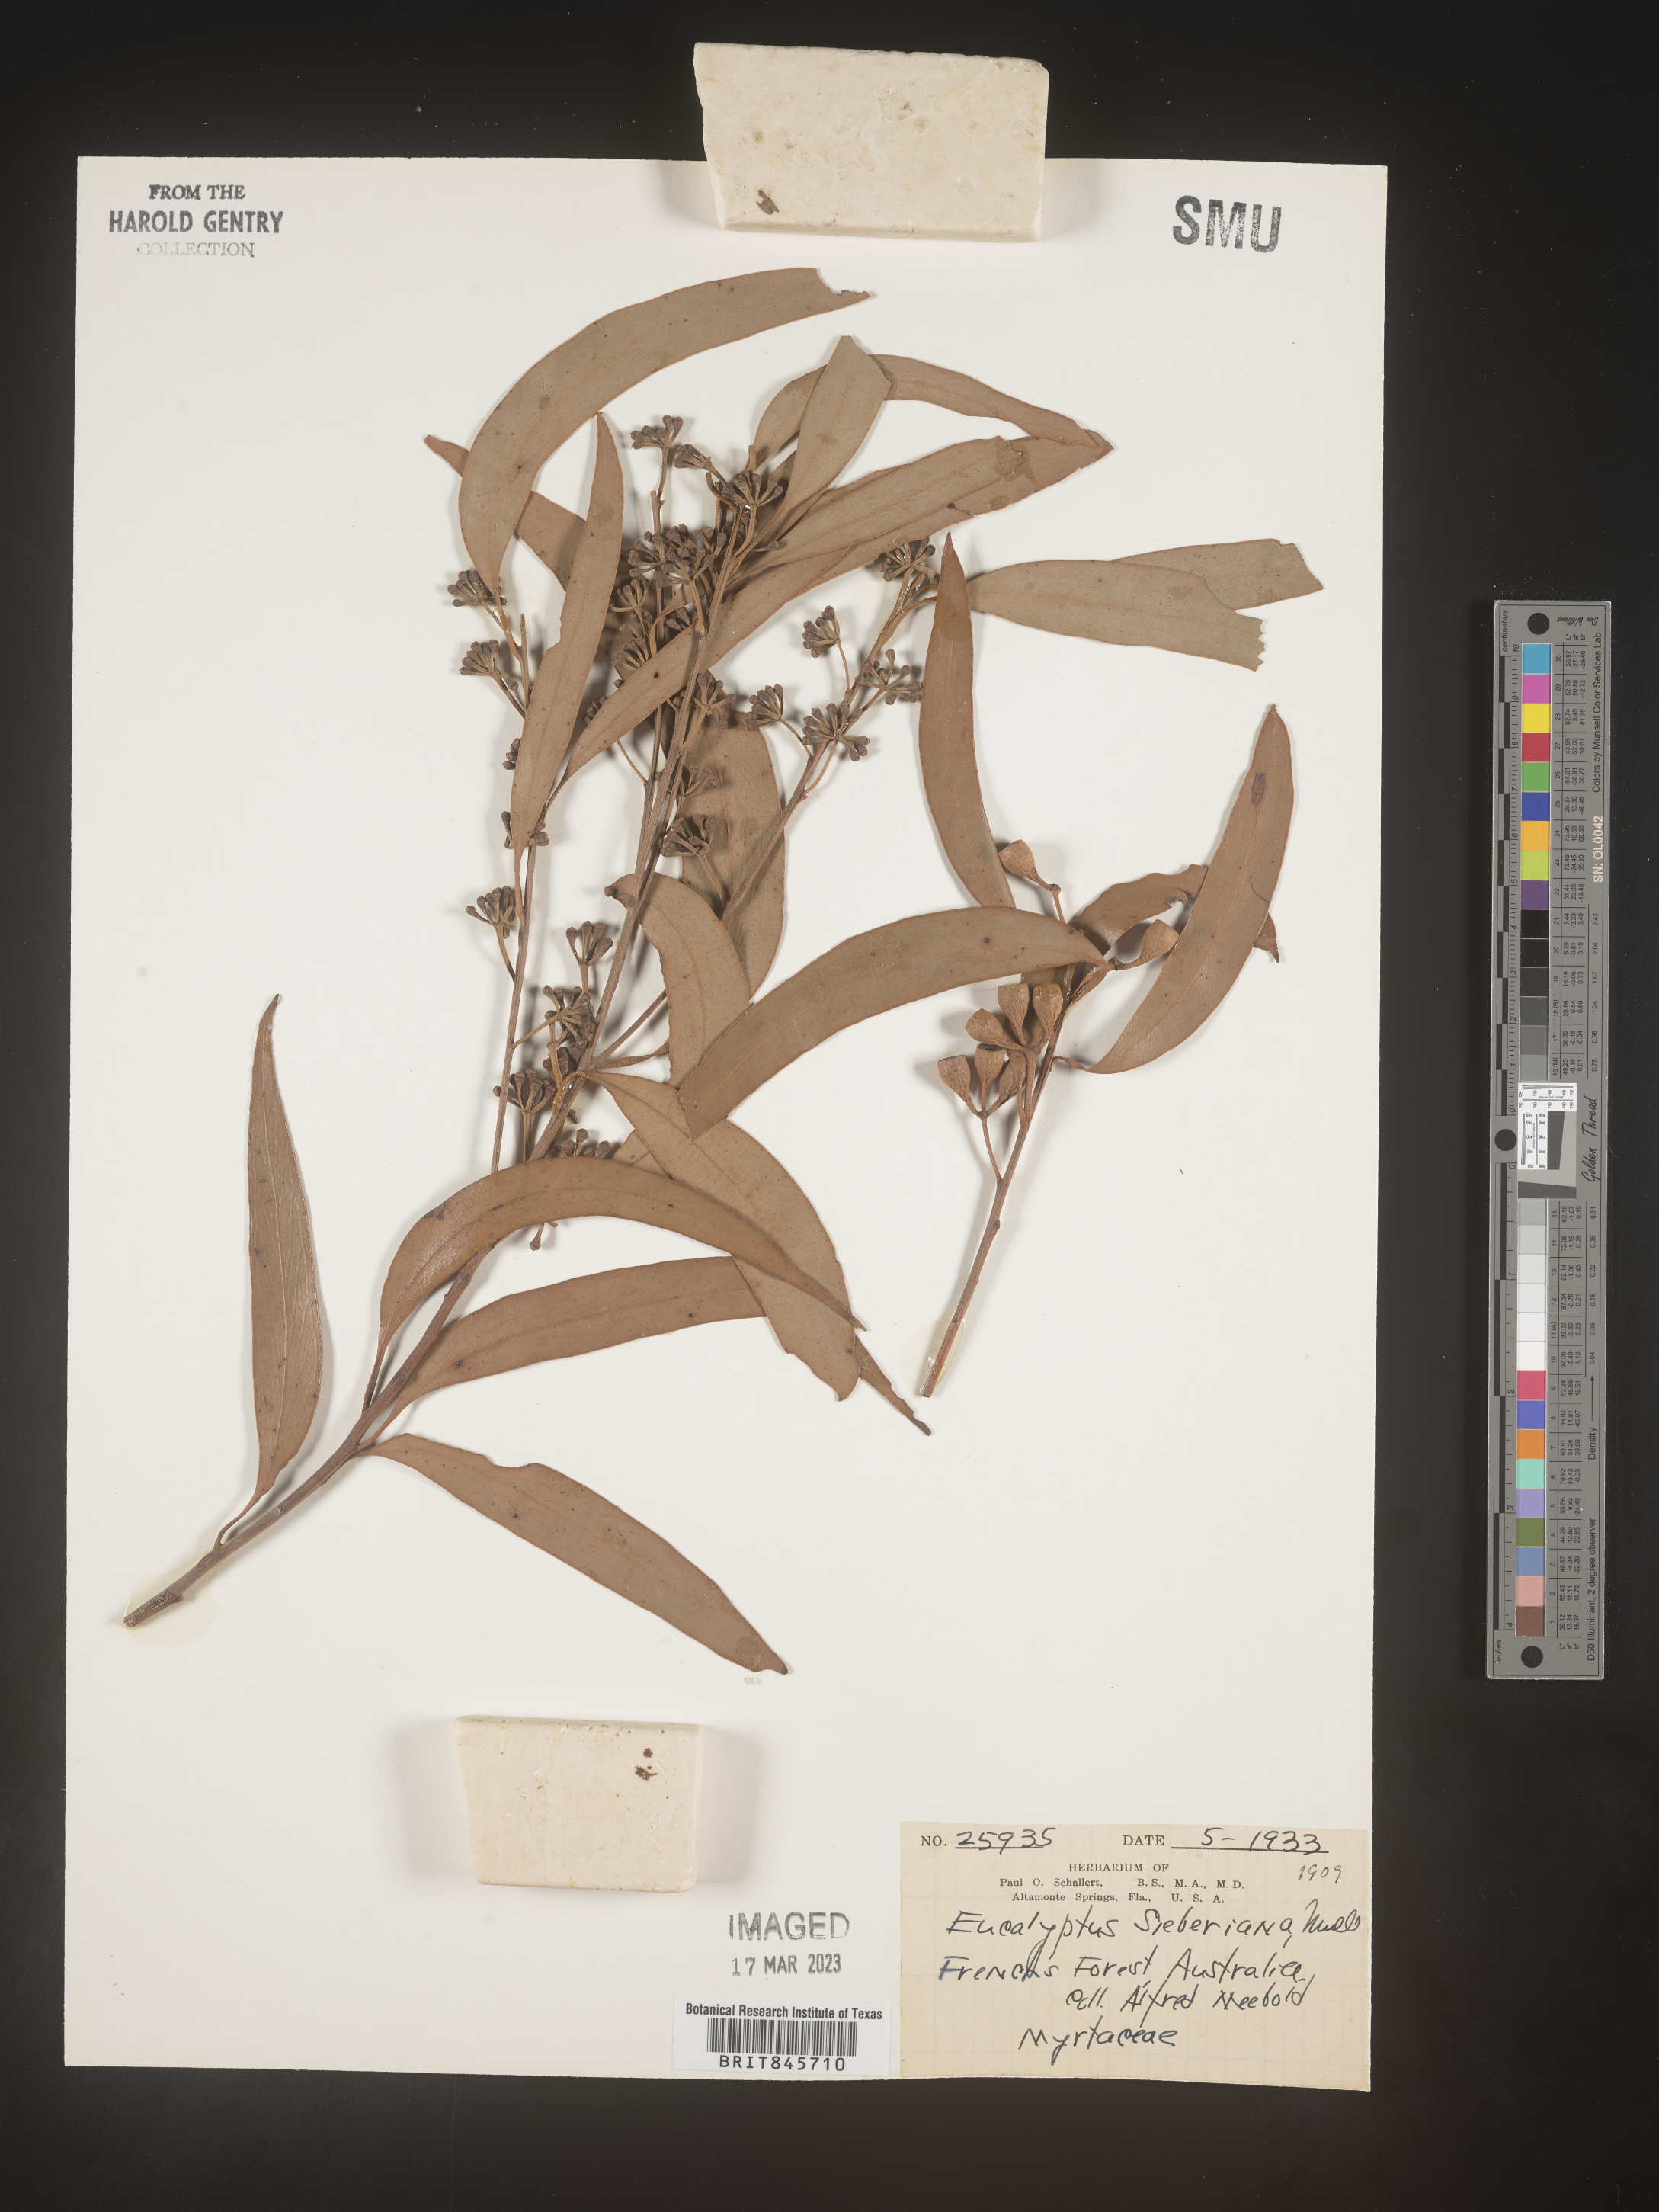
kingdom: Plantae
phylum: Tracheophyta
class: Magnoliopsida
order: Myrtales
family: Myrtaceae
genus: Eucalyptus
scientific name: Eucalyptus
